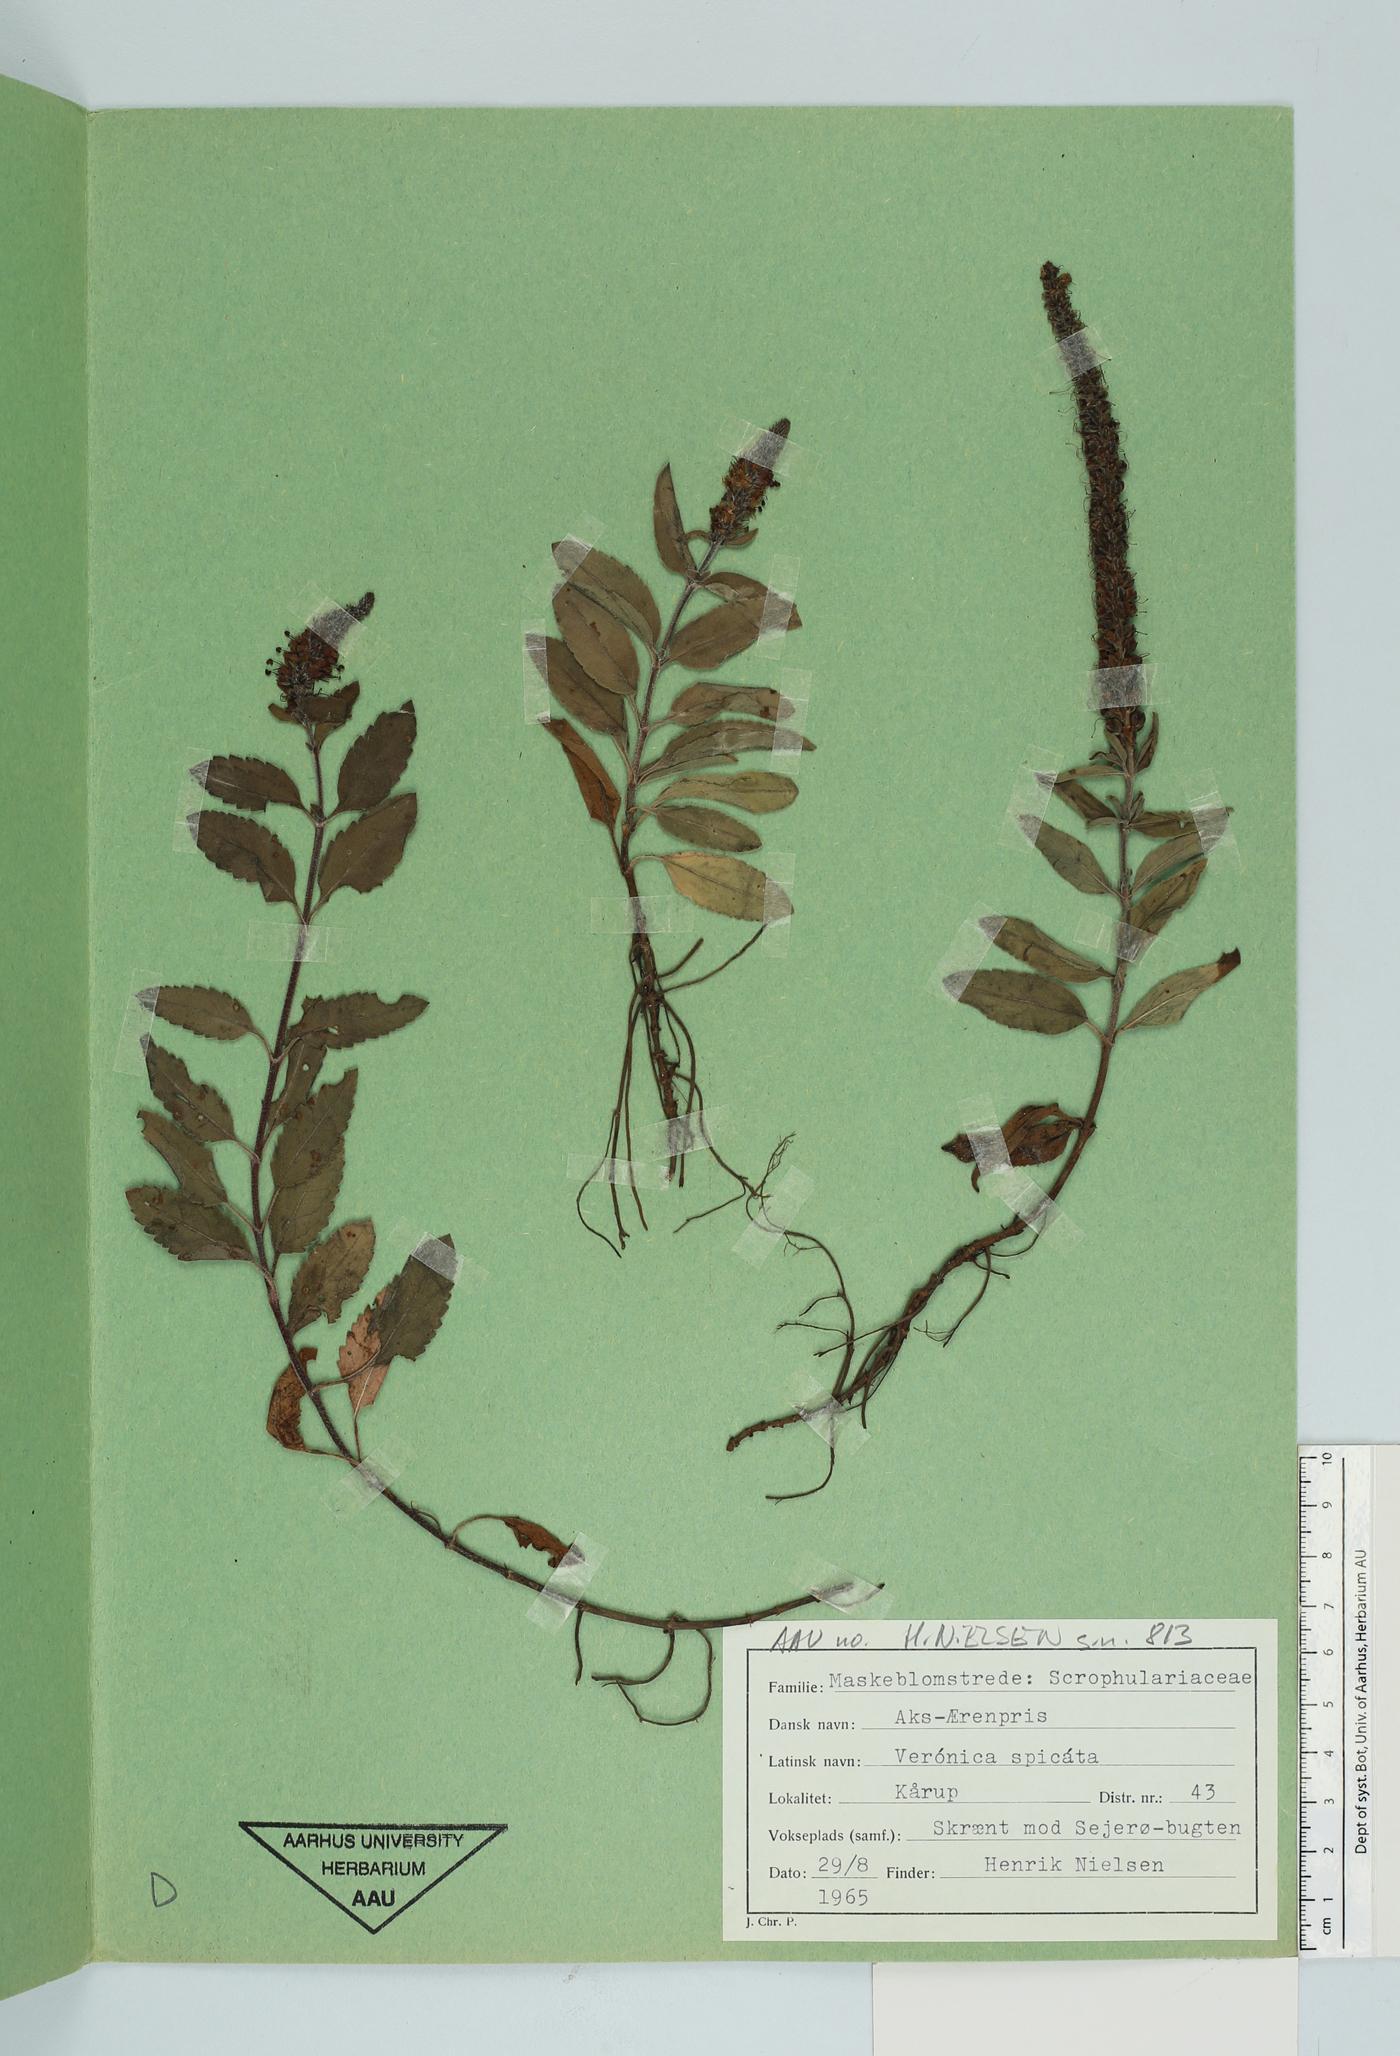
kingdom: Plantae
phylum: Tracheophyta
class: Magnoliopsida
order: Lamiales
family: Plantaginaceae
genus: Veronica
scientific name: Veronica spicata
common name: Spiked speedwell
